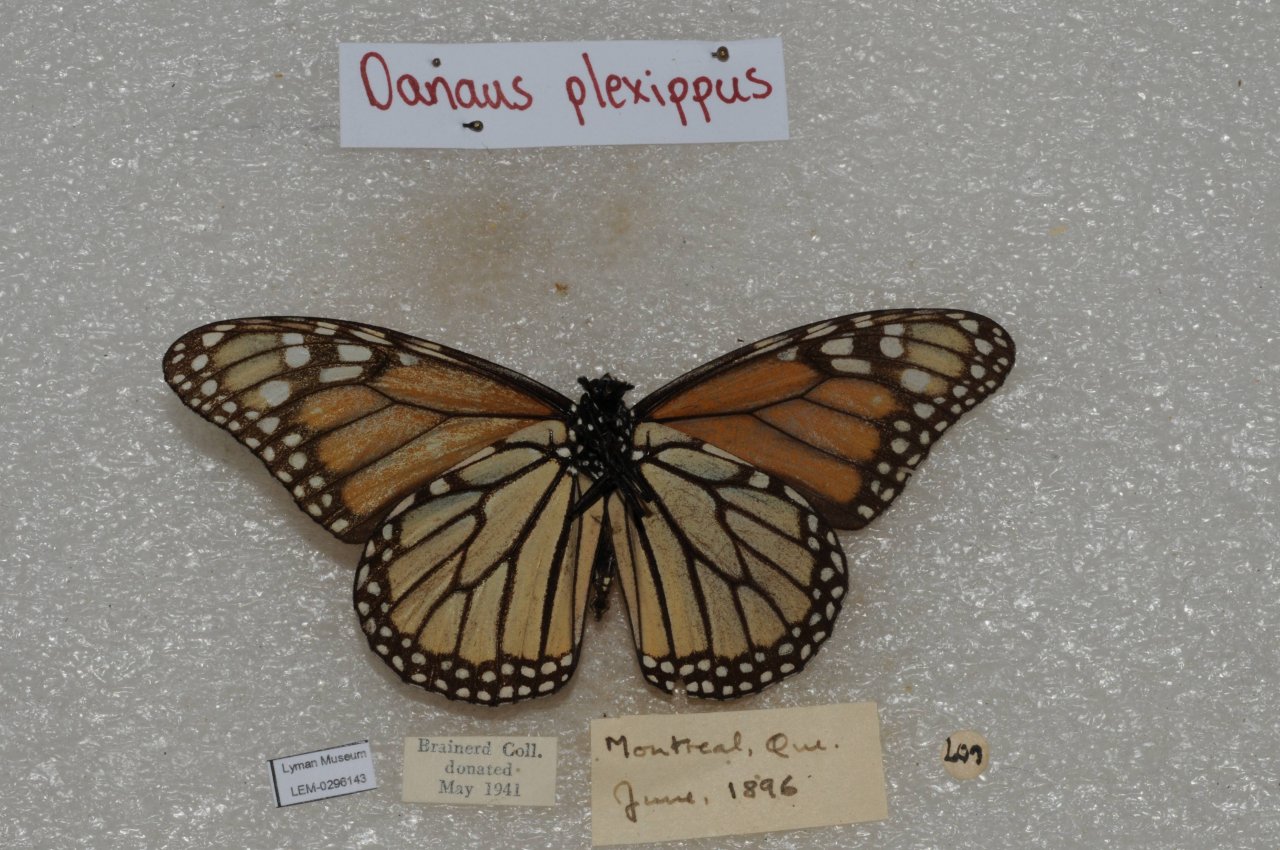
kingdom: Animalia
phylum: Arthropoda
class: Insecta
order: Lepidoptera
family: Nymphalidae
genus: Danaus
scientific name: Danaus plexippus
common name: Monarch
